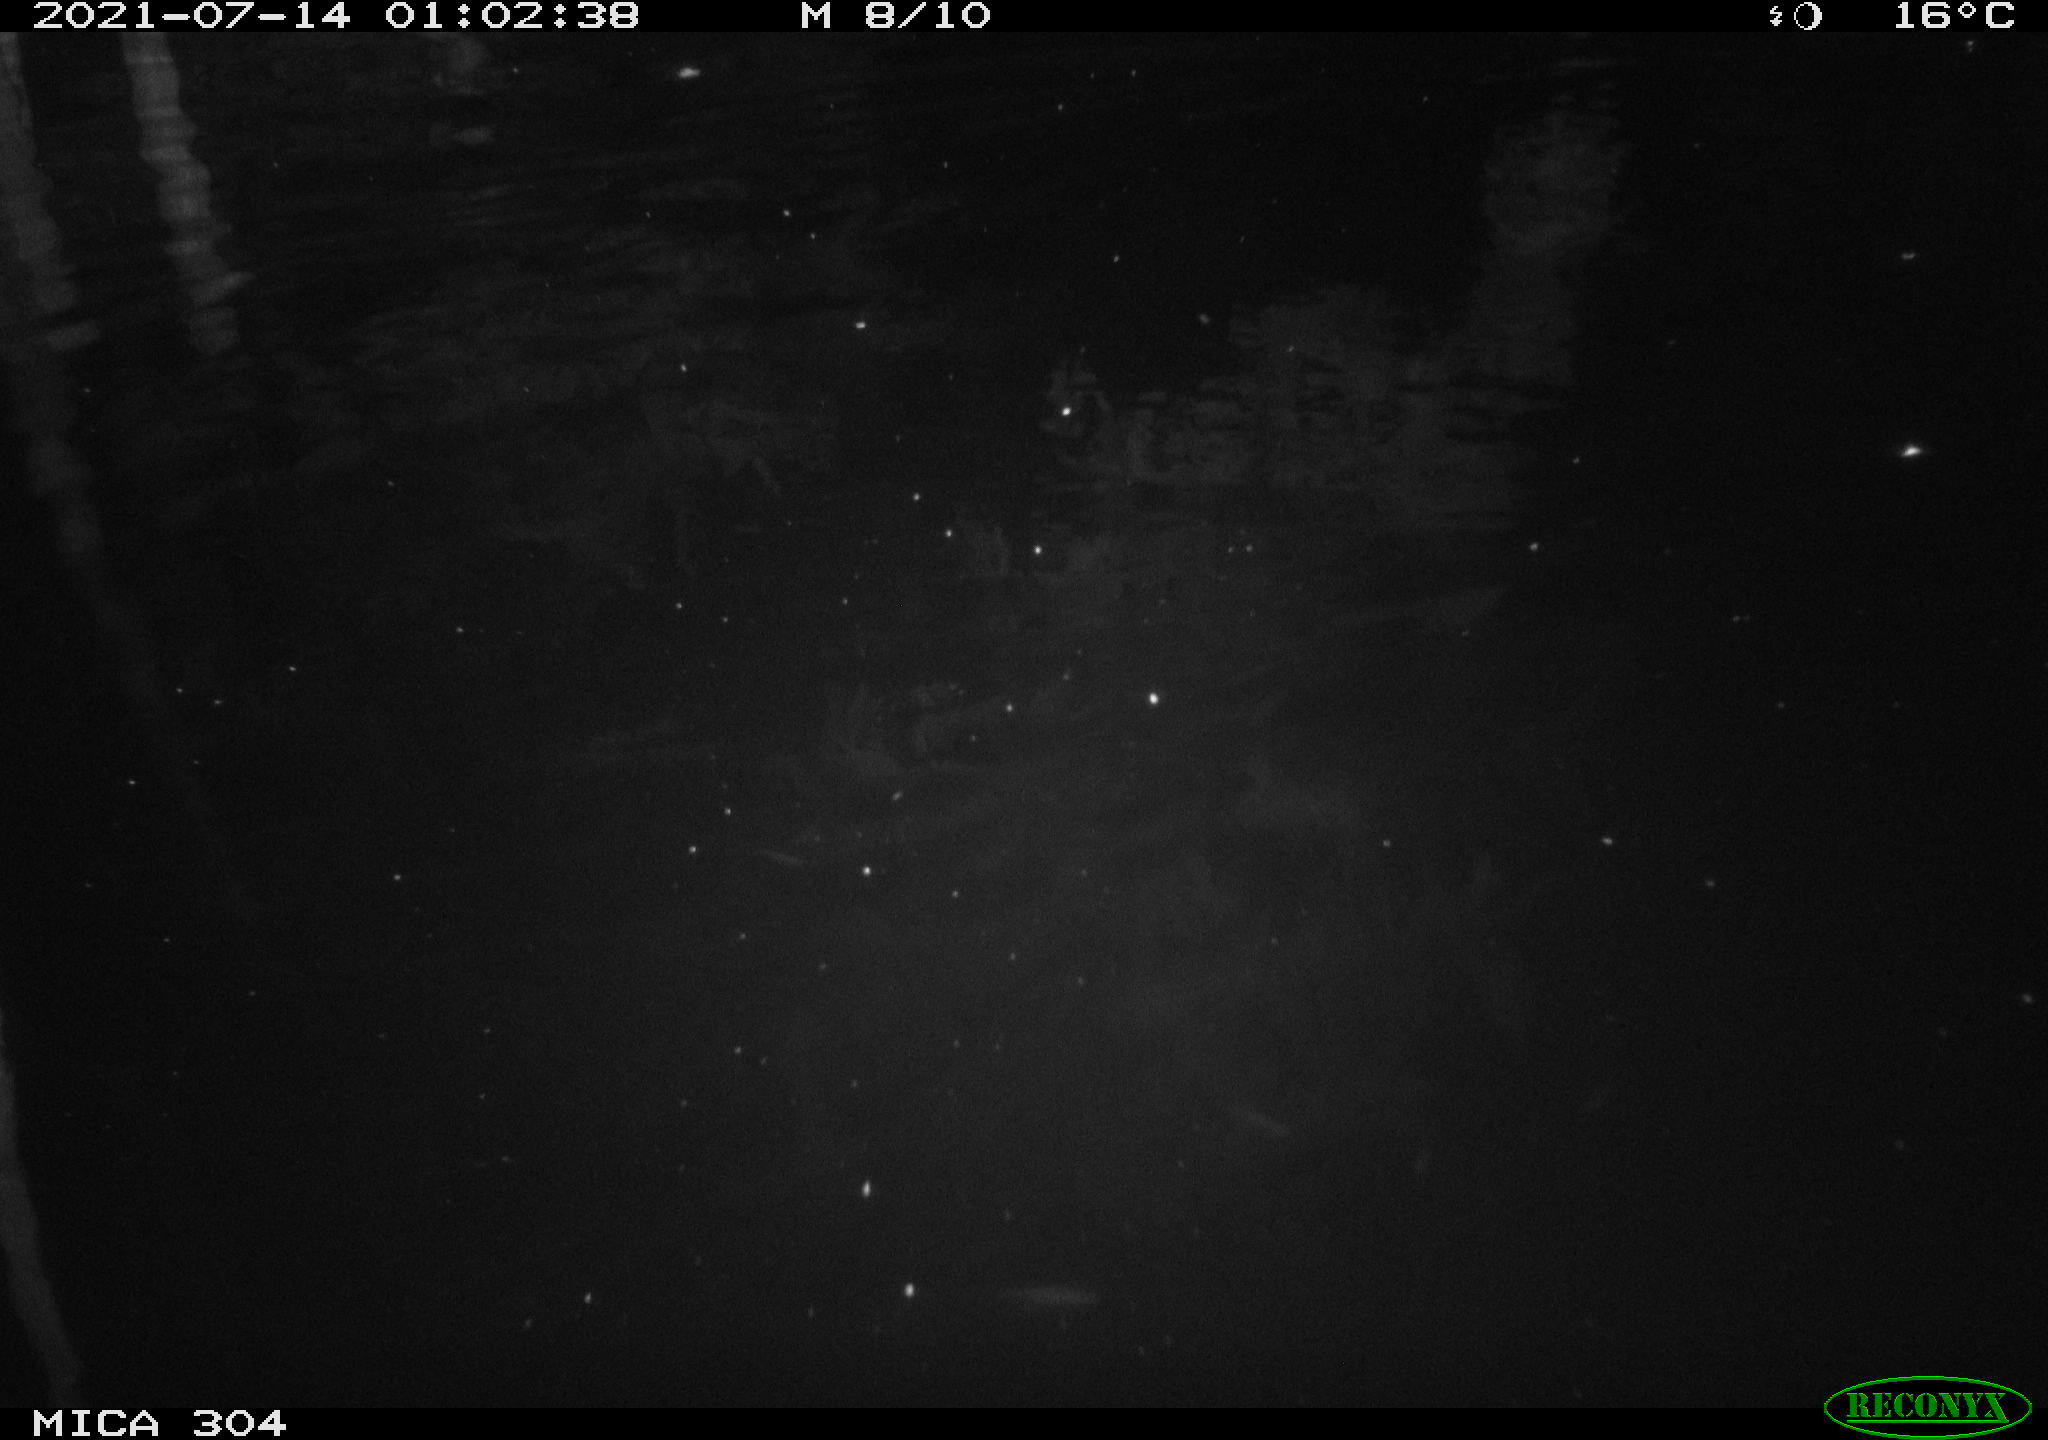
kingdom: Animalia
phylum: Chordata
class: Mammalia
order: Rodentia
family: Muridae
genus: Rattus
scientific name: Rattus norvegicus
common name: Brown rat
